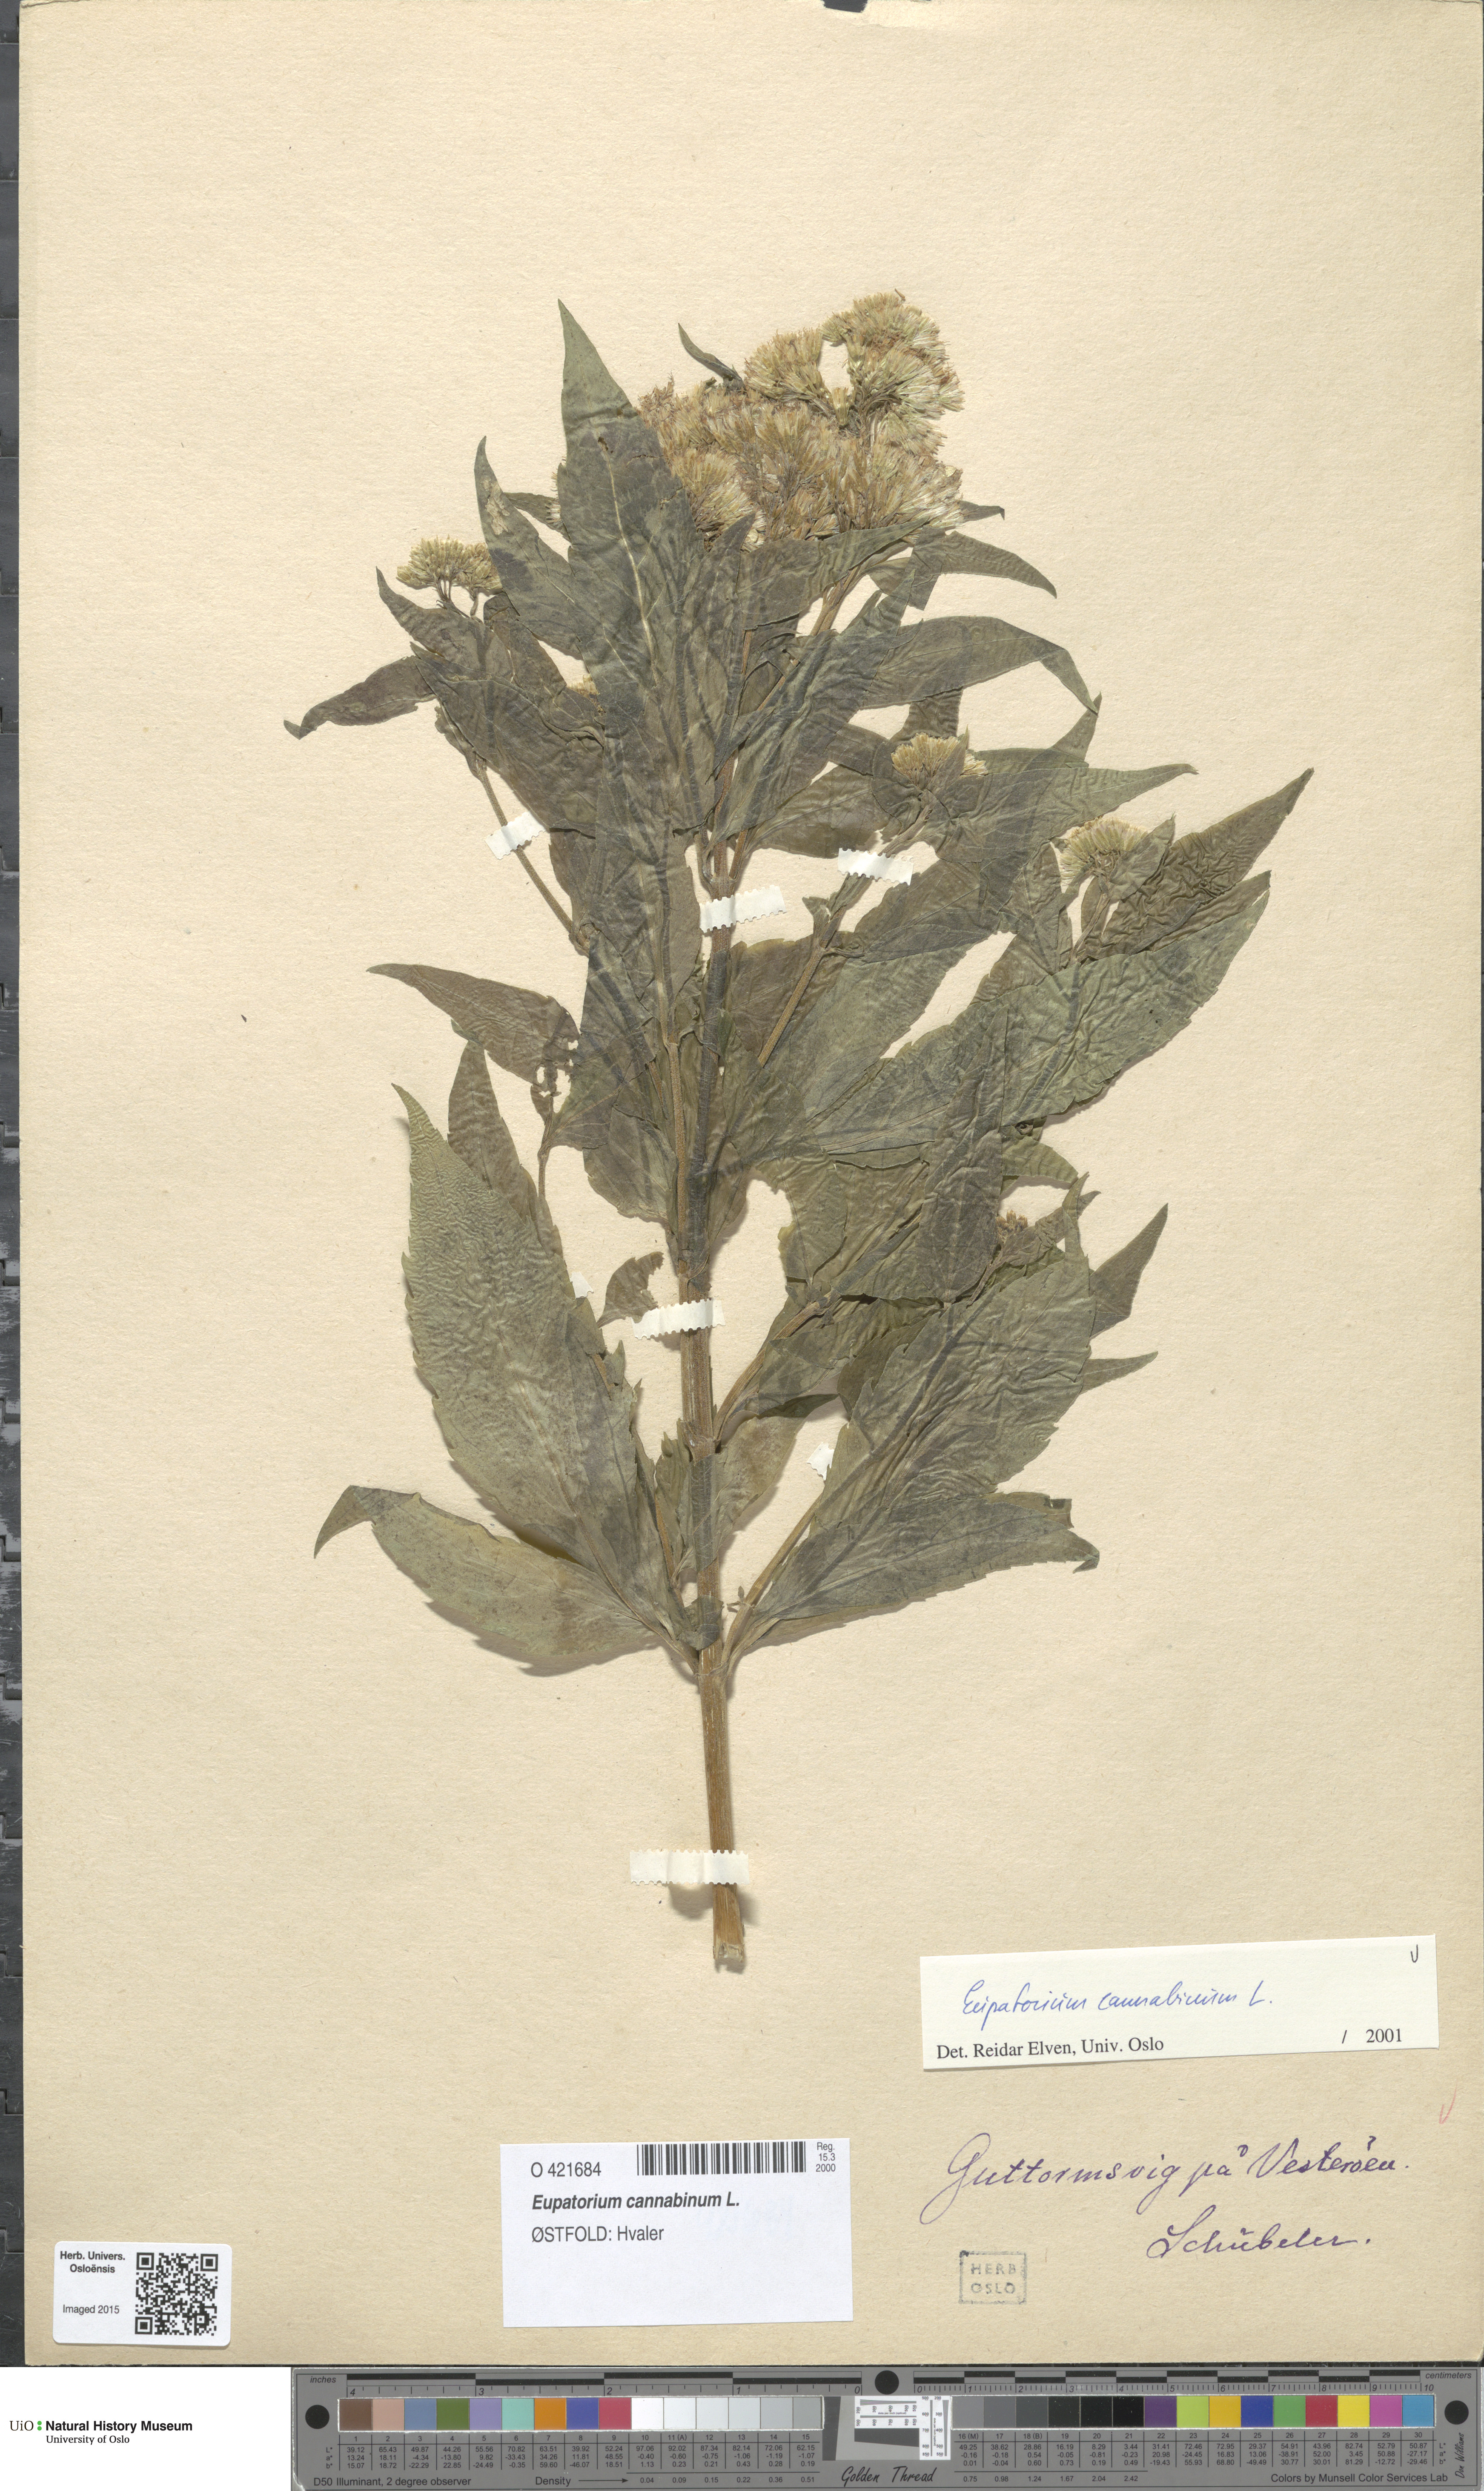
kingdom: Plantae
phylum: Tracheophyta
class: Magnoliopsida
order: Asterales
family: Asteraceae
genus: Eupatorium
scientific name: Eupatorium cannabinum
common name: Hemp-agrimony
